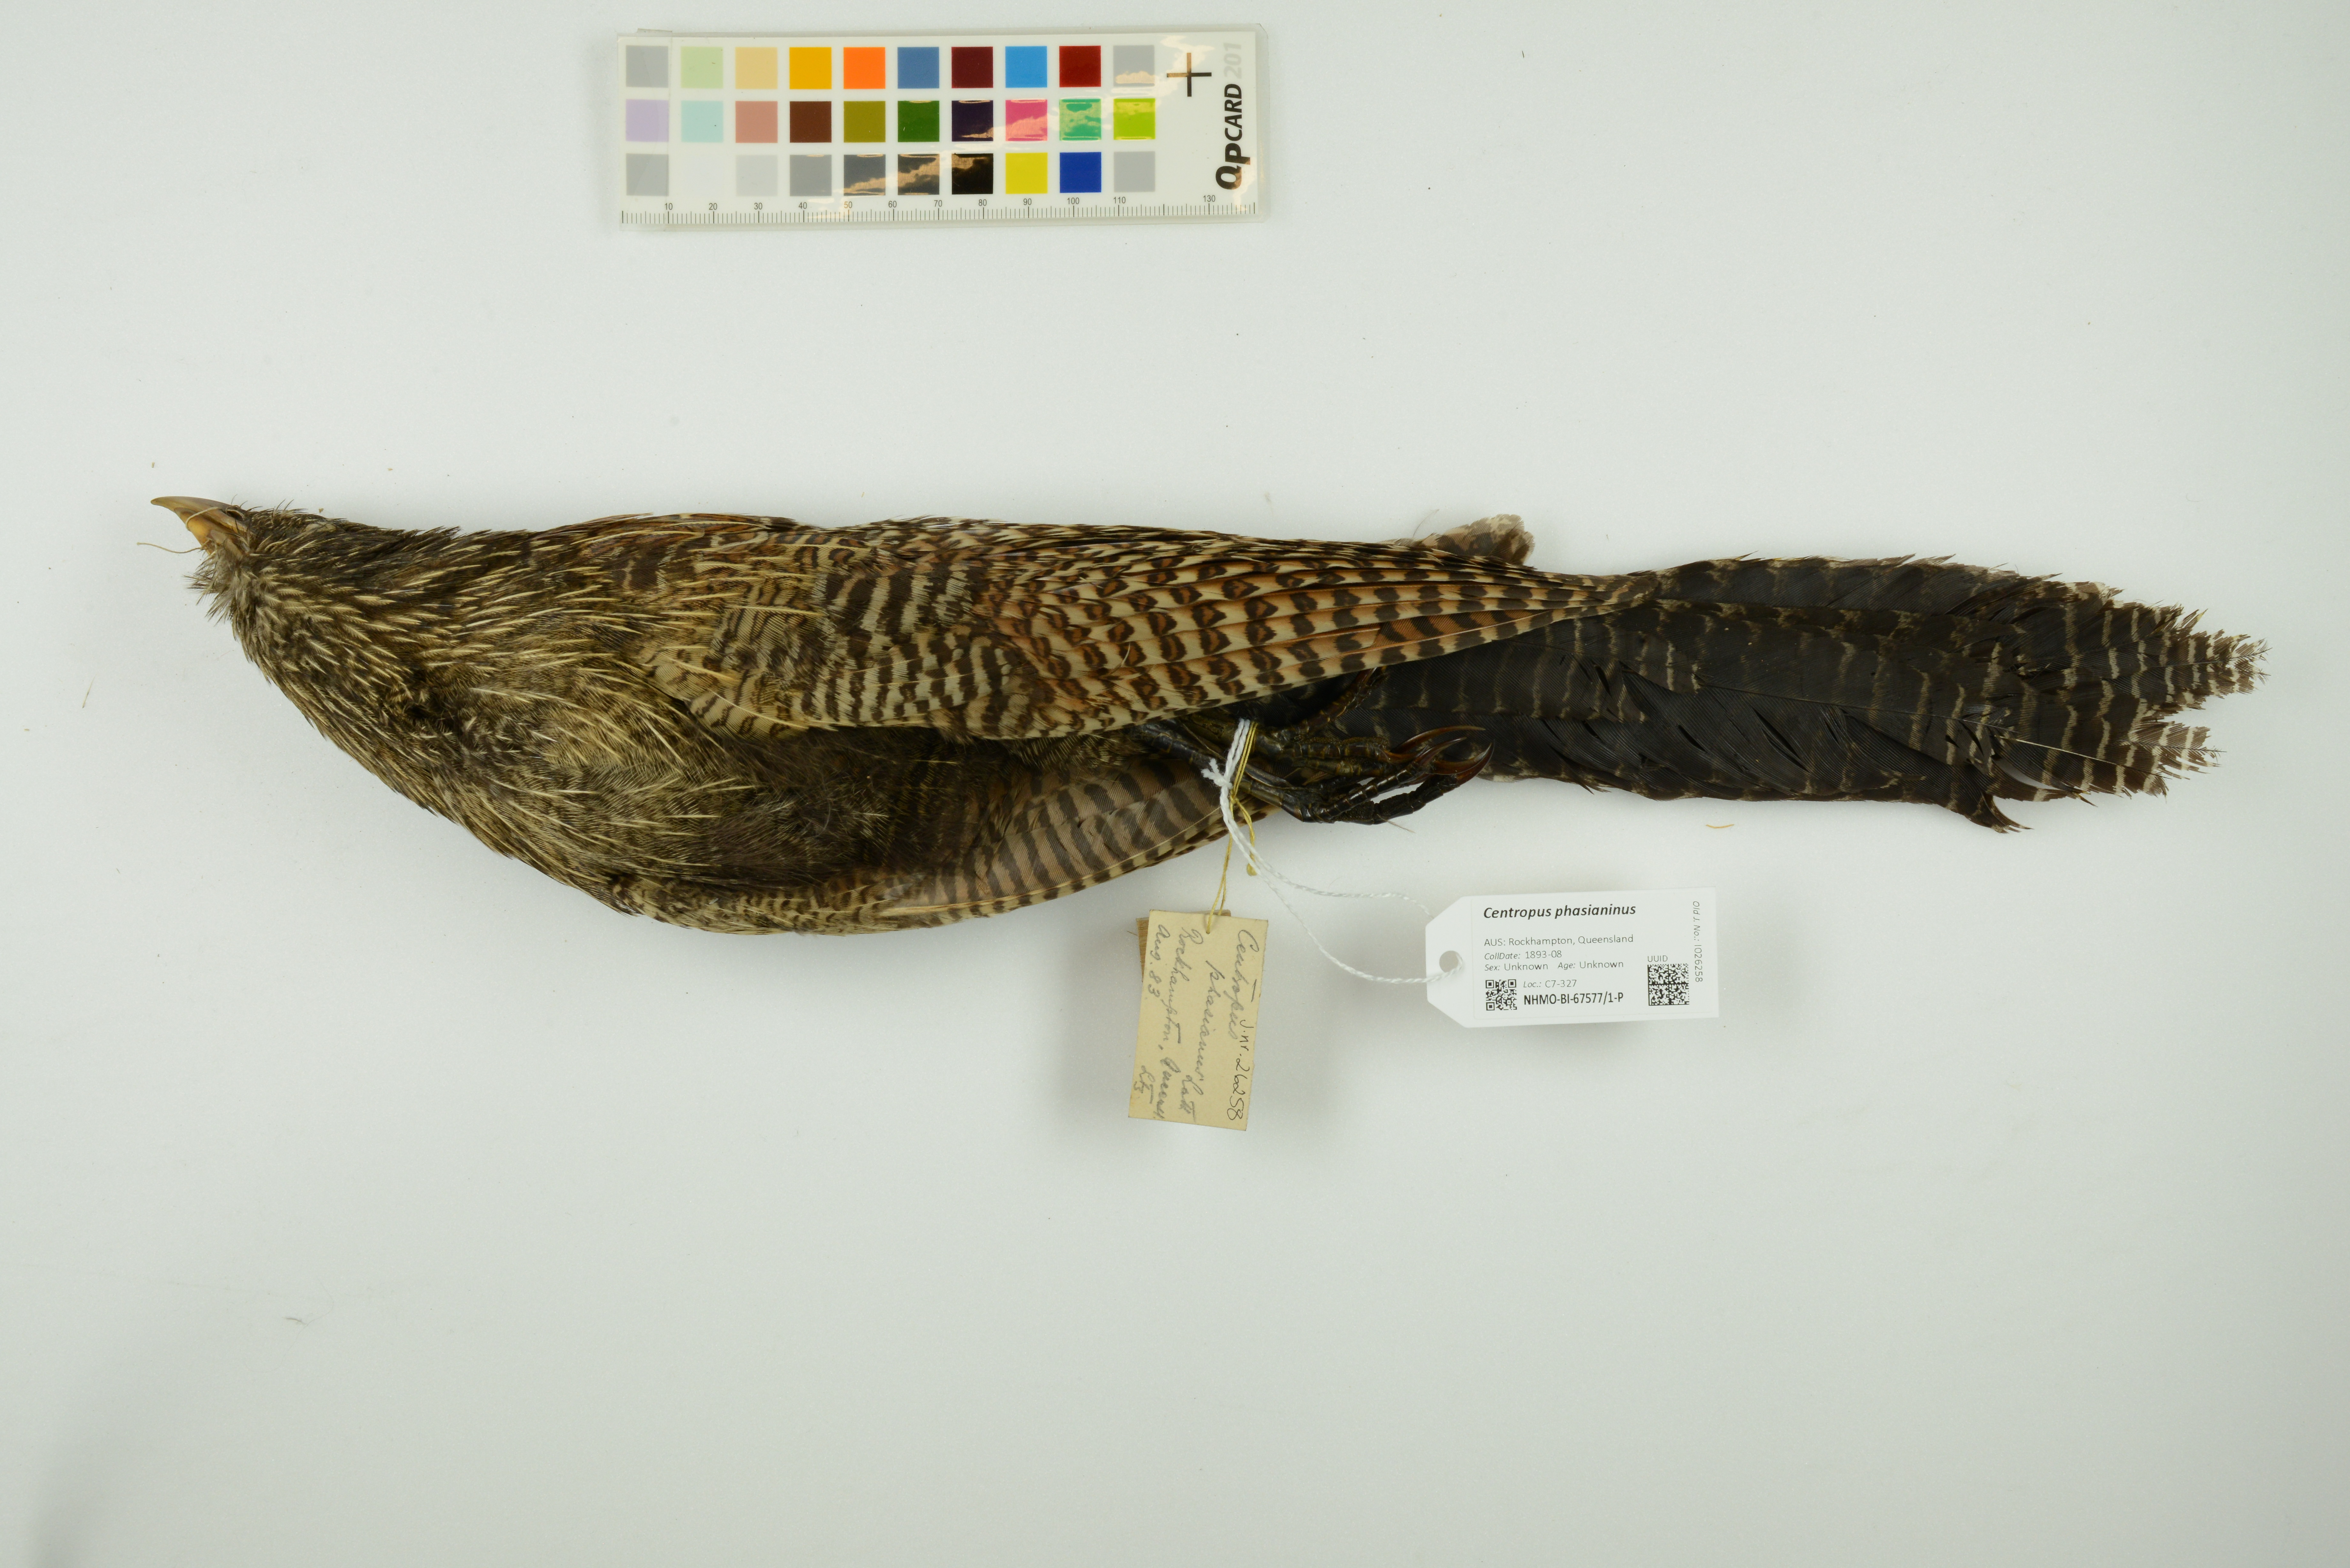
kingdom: Animalia
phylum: Chordata
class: Aves
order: Cuculiformes
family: Cuculidae
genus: Centropus
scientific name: Centropus phasianinus
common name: Pheasant coucal
